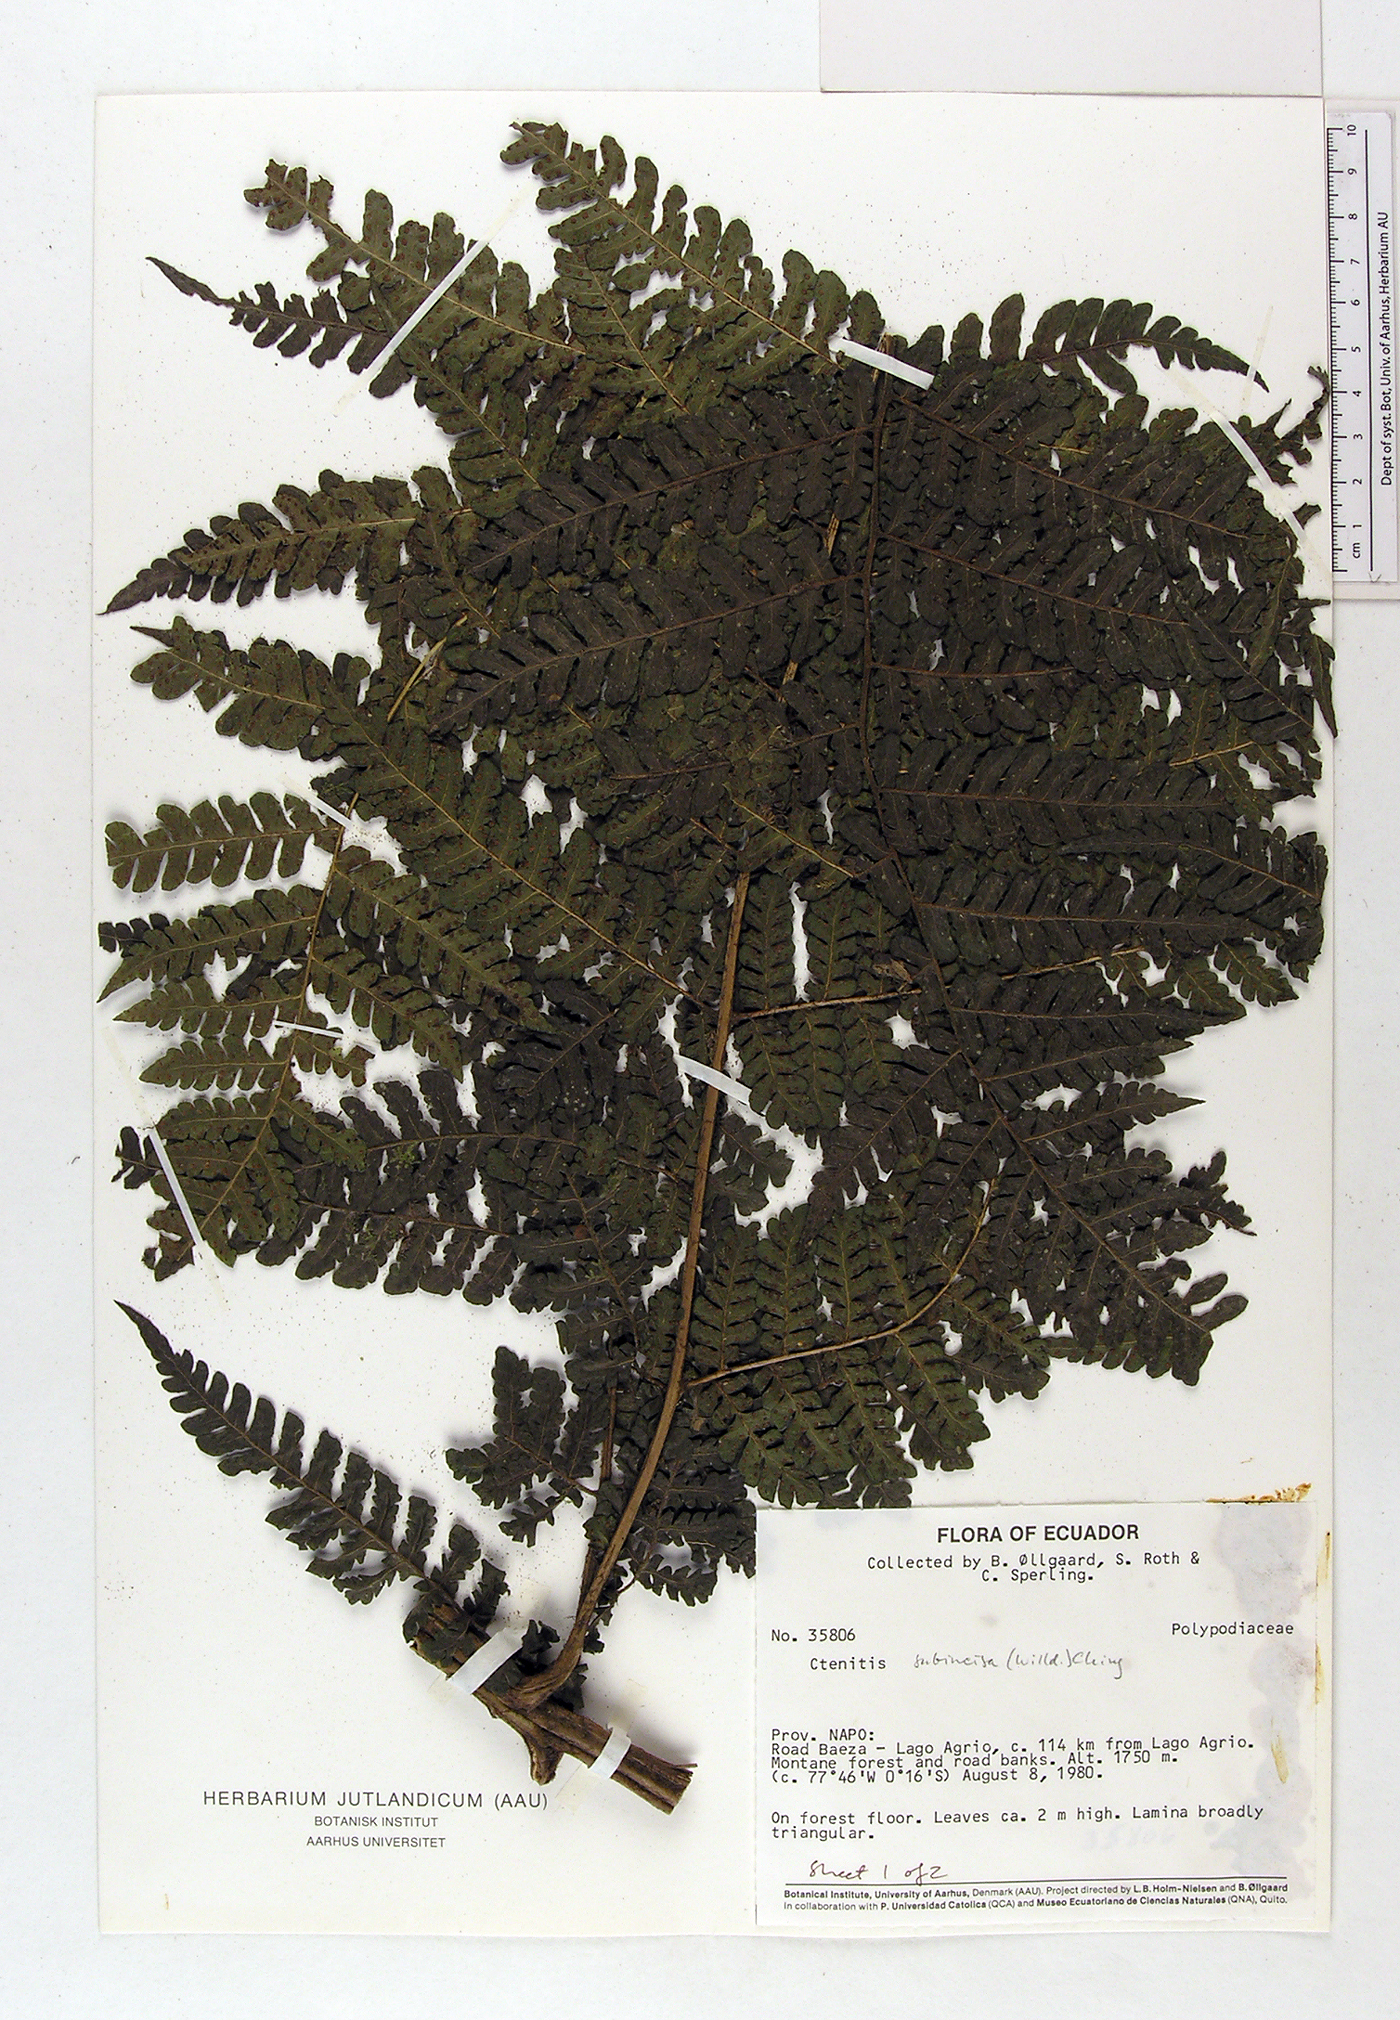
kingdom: Plantae
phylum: Tracheophyta
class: Polypodiopsida
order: Polypodiales
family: Dryopteridaceae
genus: Megalastrum
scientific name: Megalastrum oellgaardii
